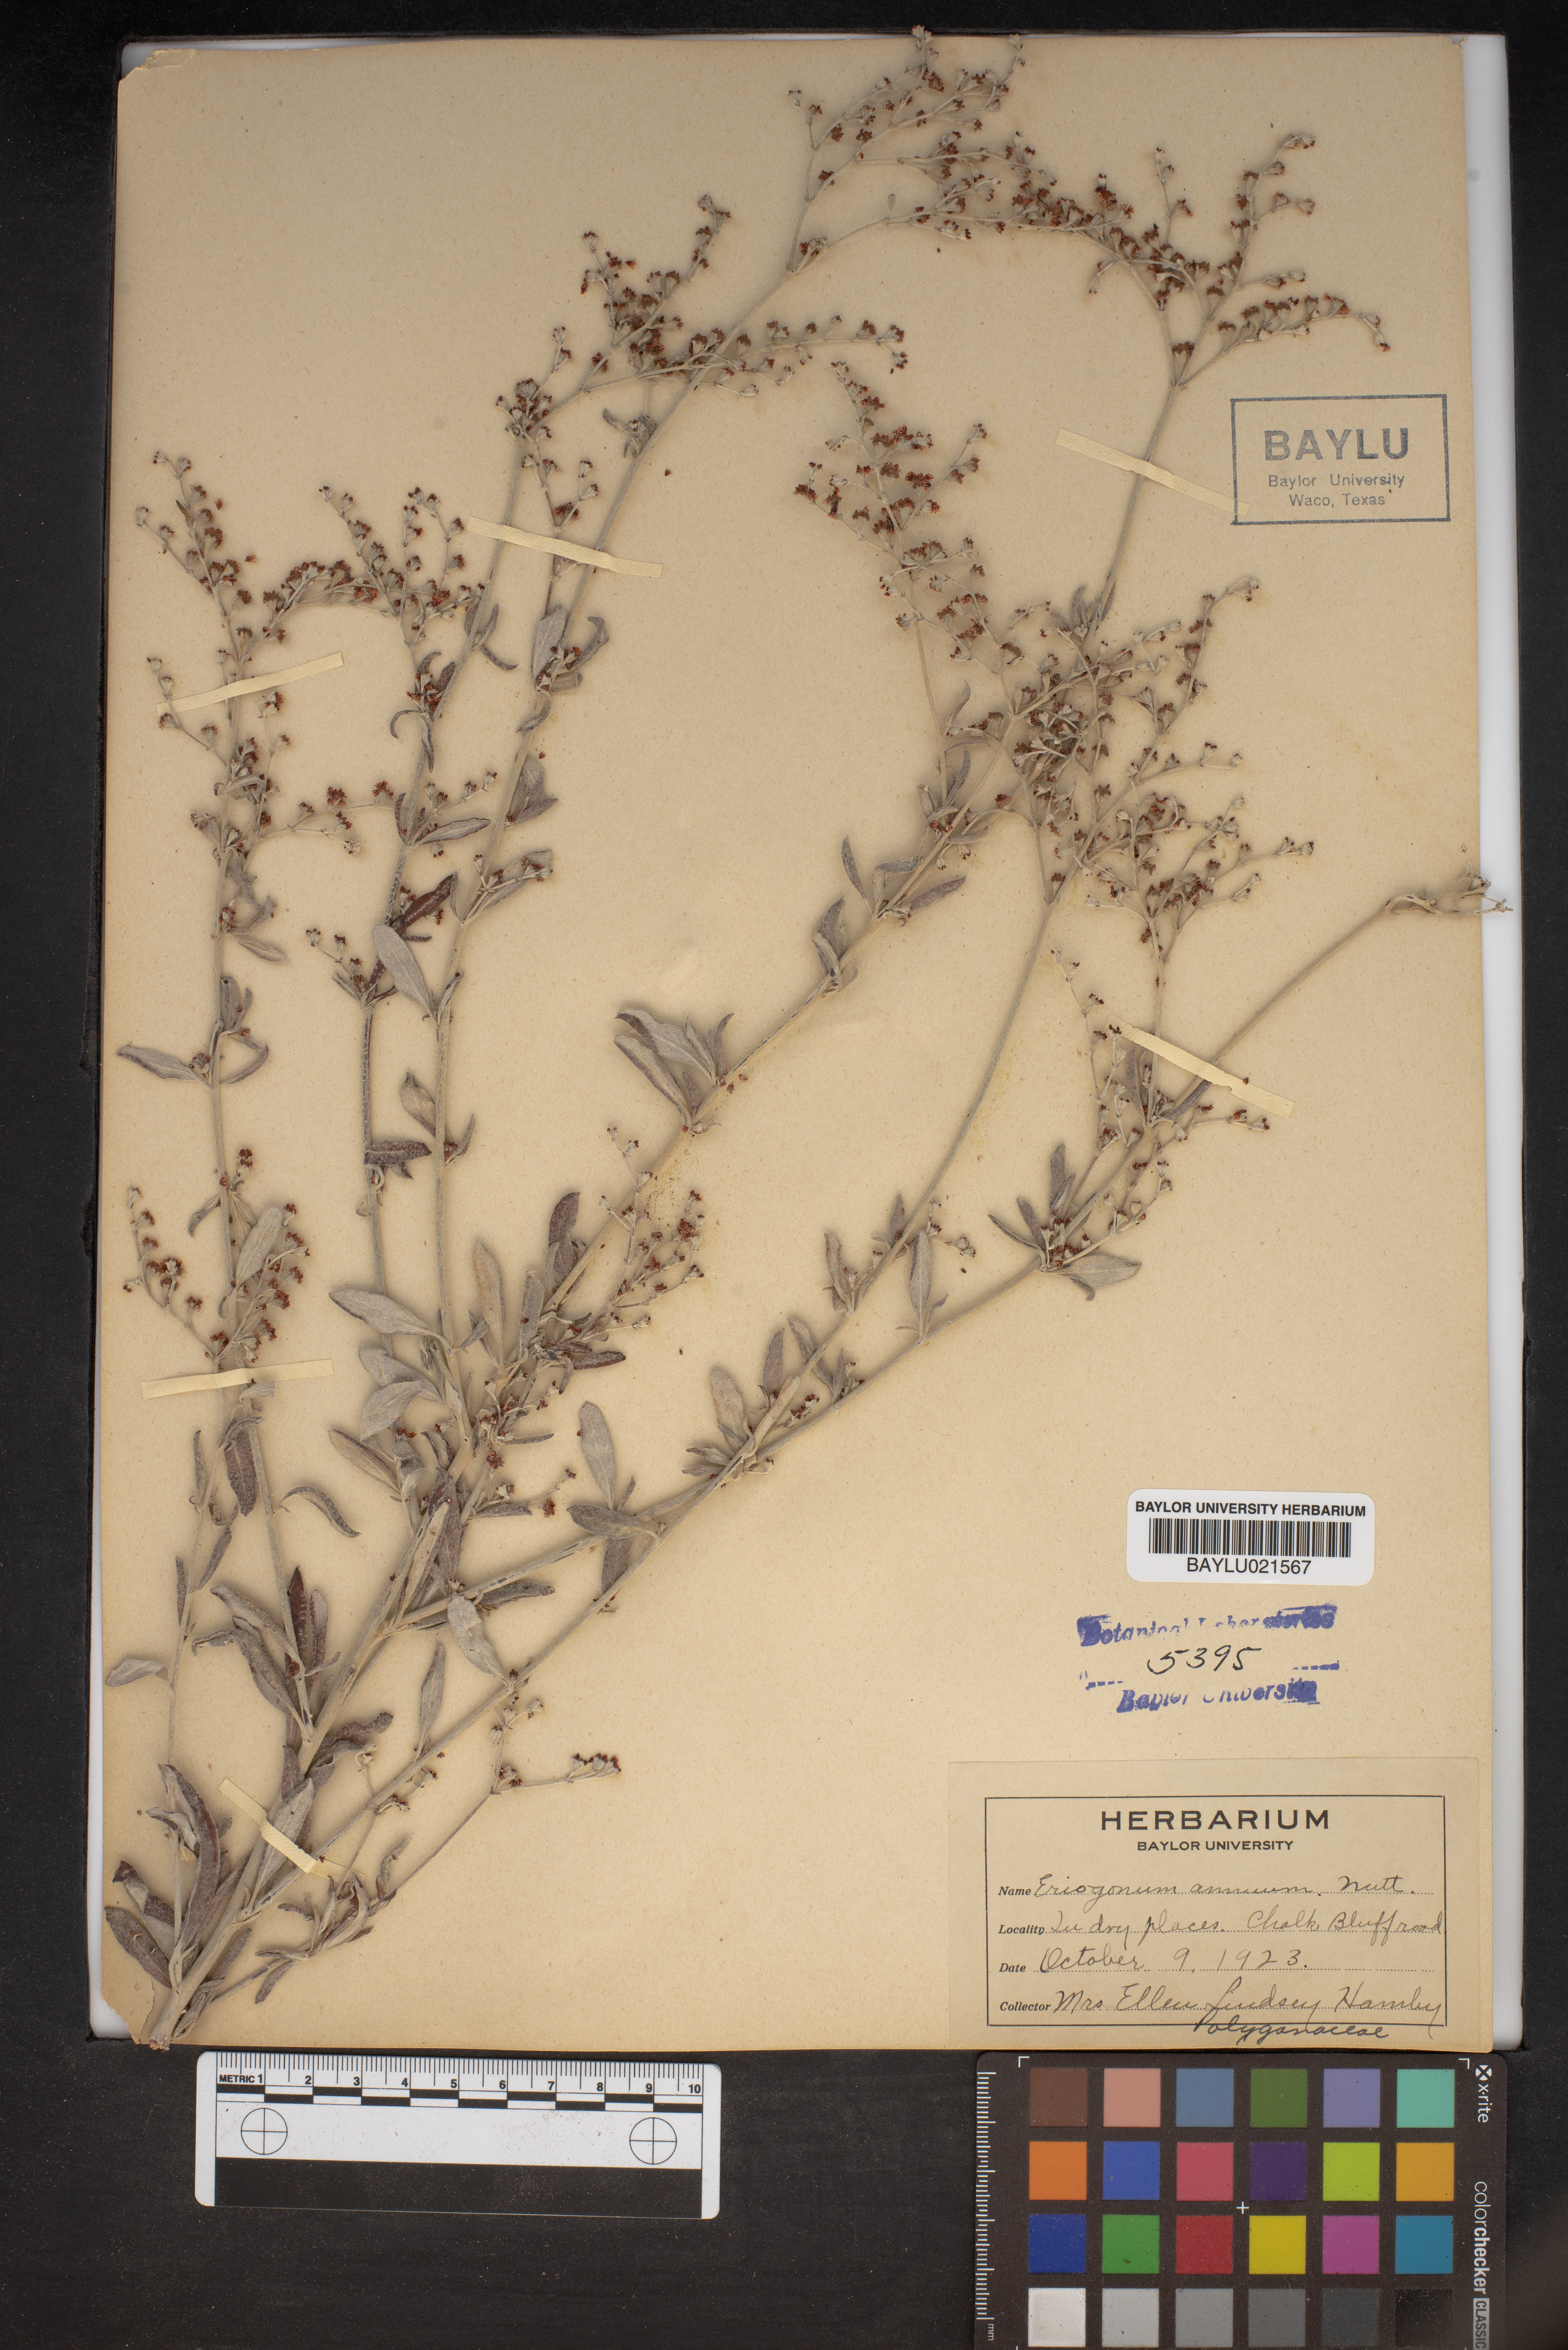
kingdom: Plantae
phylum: Tracheophyta
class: Magnoliopsida
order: Caryophyllales
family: Polygonaceae
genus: Eriogonum
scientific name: Eriogonum annuum
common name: Annual wild buckwheat
